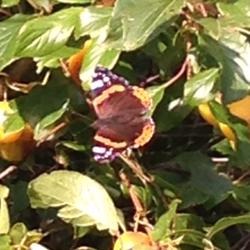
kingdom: Animalia
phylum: Arthropoda
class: Insecta
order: Lepidoptera
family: Nymphalidae
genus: Vanessa
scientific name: Vanessa atalanta
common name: Admiral
